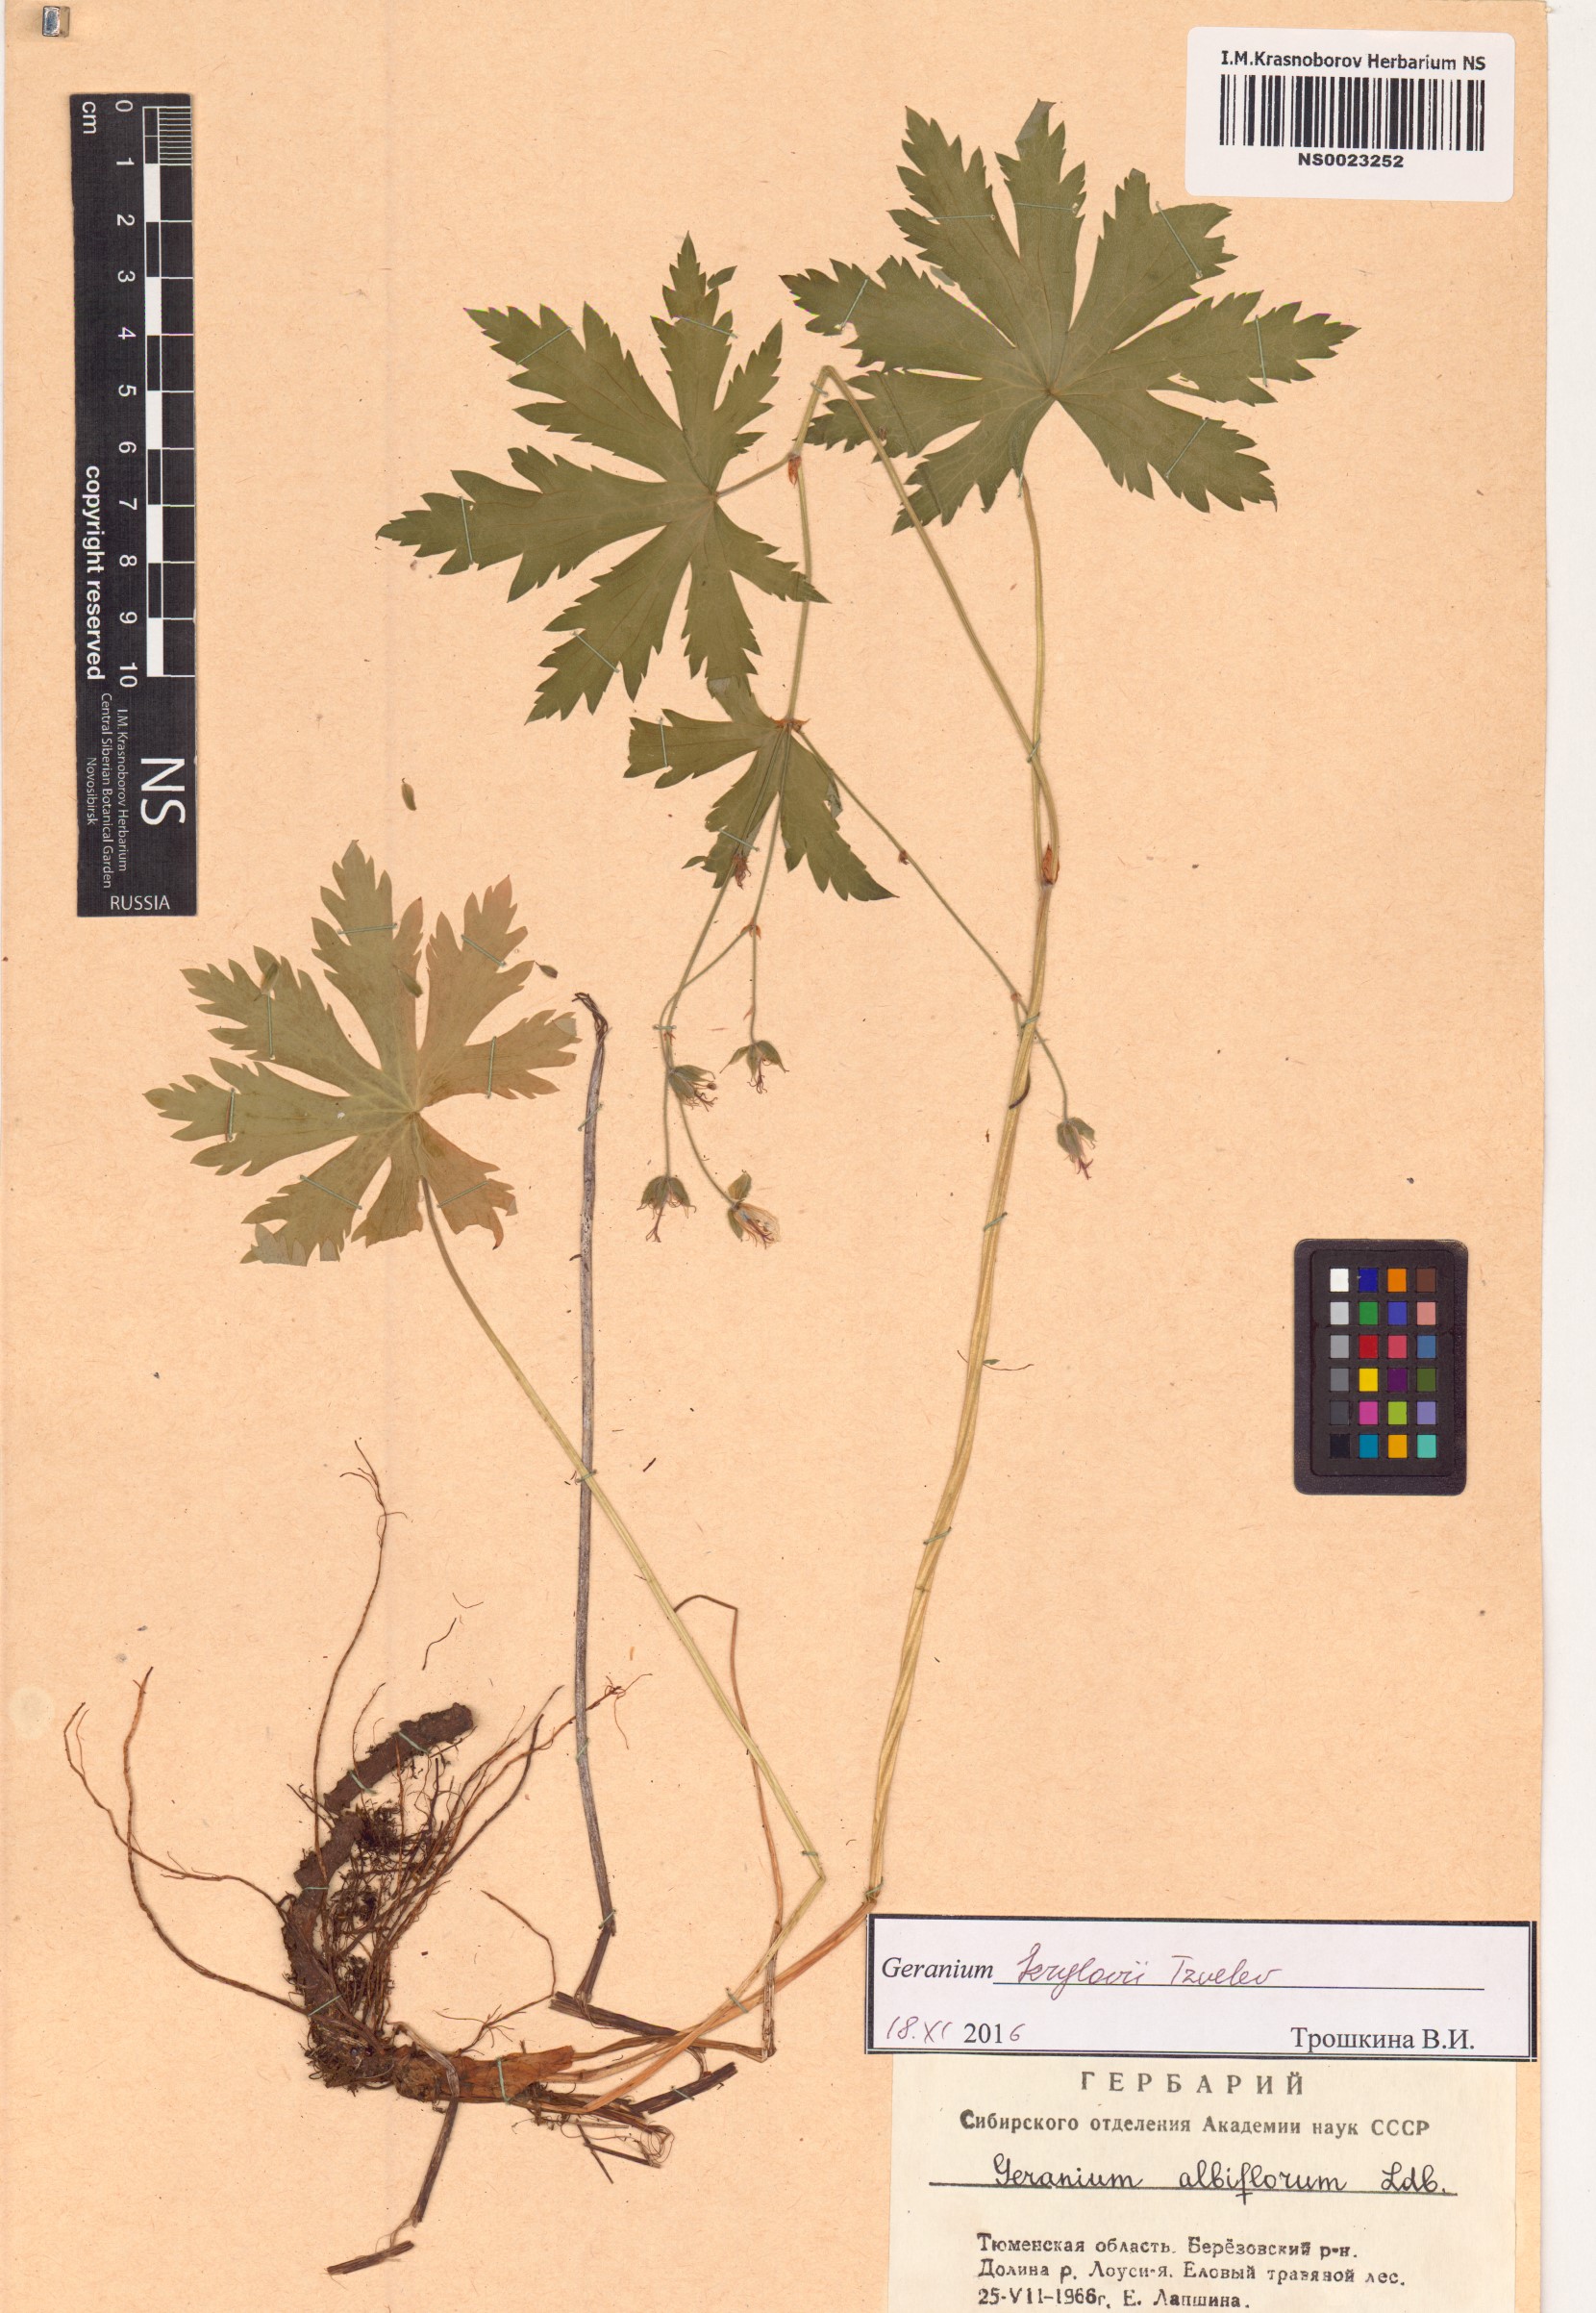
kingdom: Plantae
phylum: Tracheophyta
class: Magnoliopsida
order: Geraniales
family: Geraniaceae
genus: Geranium
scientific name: Geranium sylvaticum
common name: Wood crane's-bill
